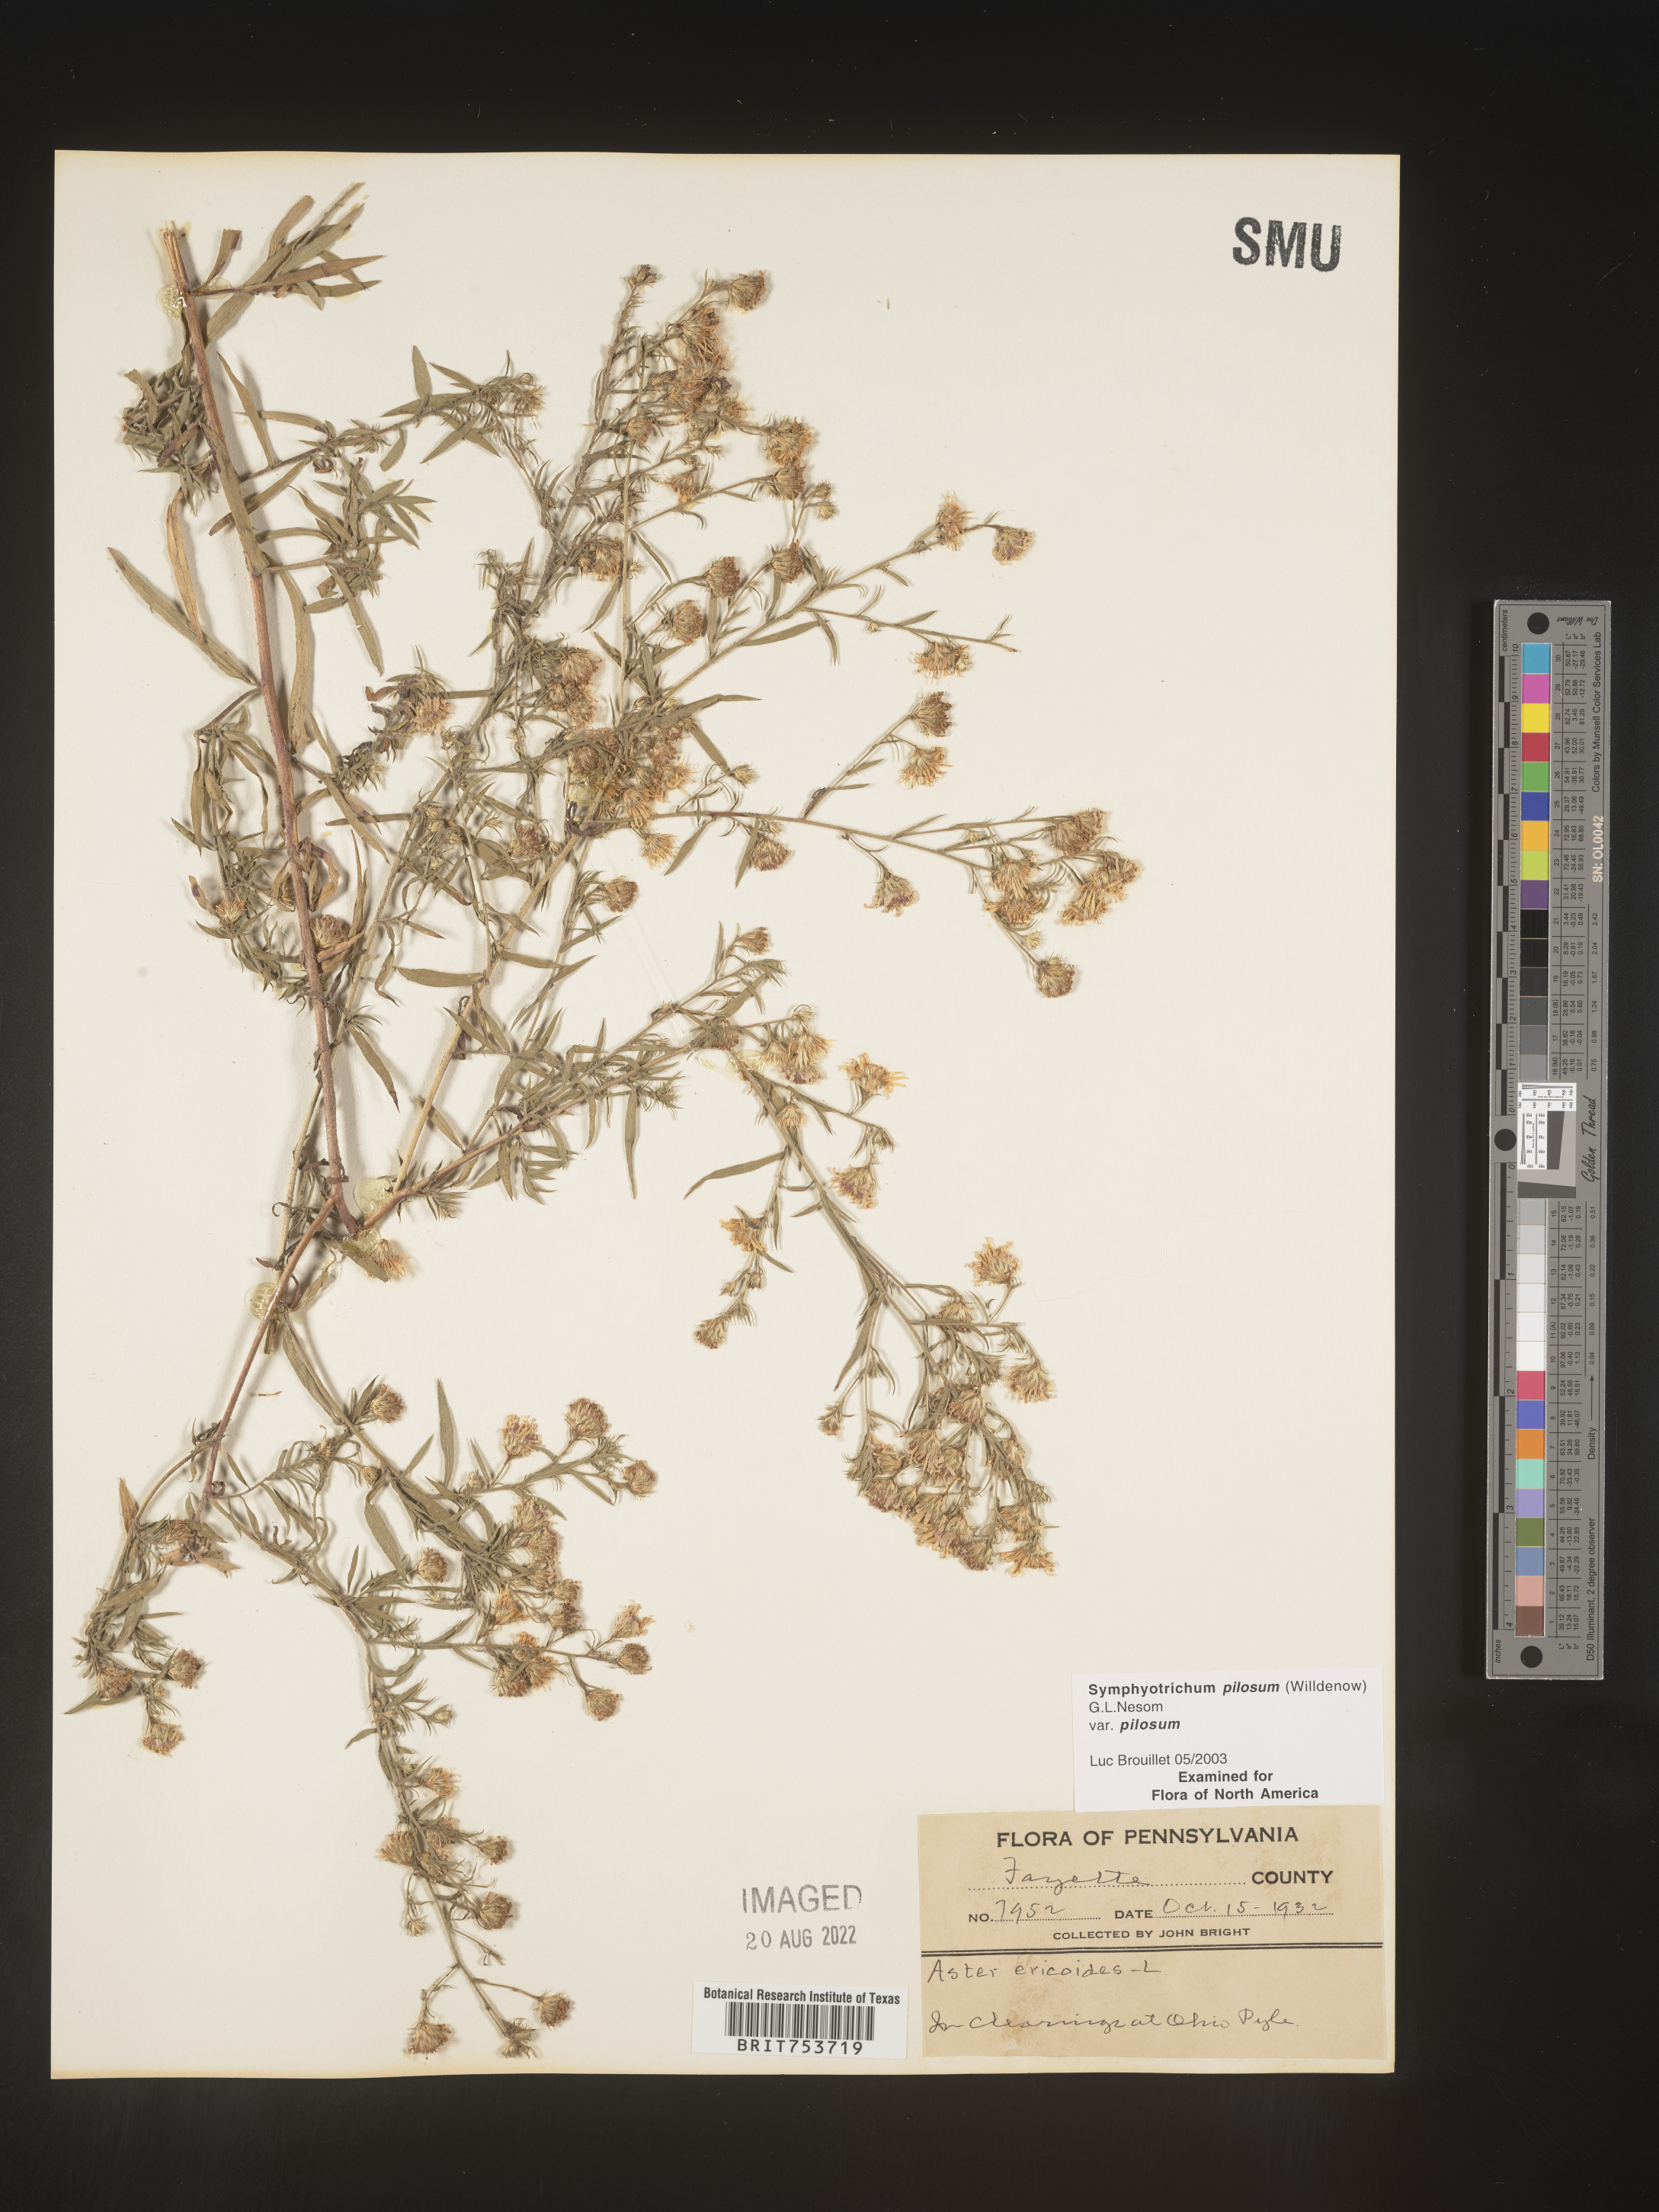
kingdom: Plantae
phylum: Tracheophyta
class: Magnoliopsida
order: Asterales
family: Asteraceae
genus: Symphyotrichum
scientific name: Symphyotrichum pilosum
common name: Awl aster
